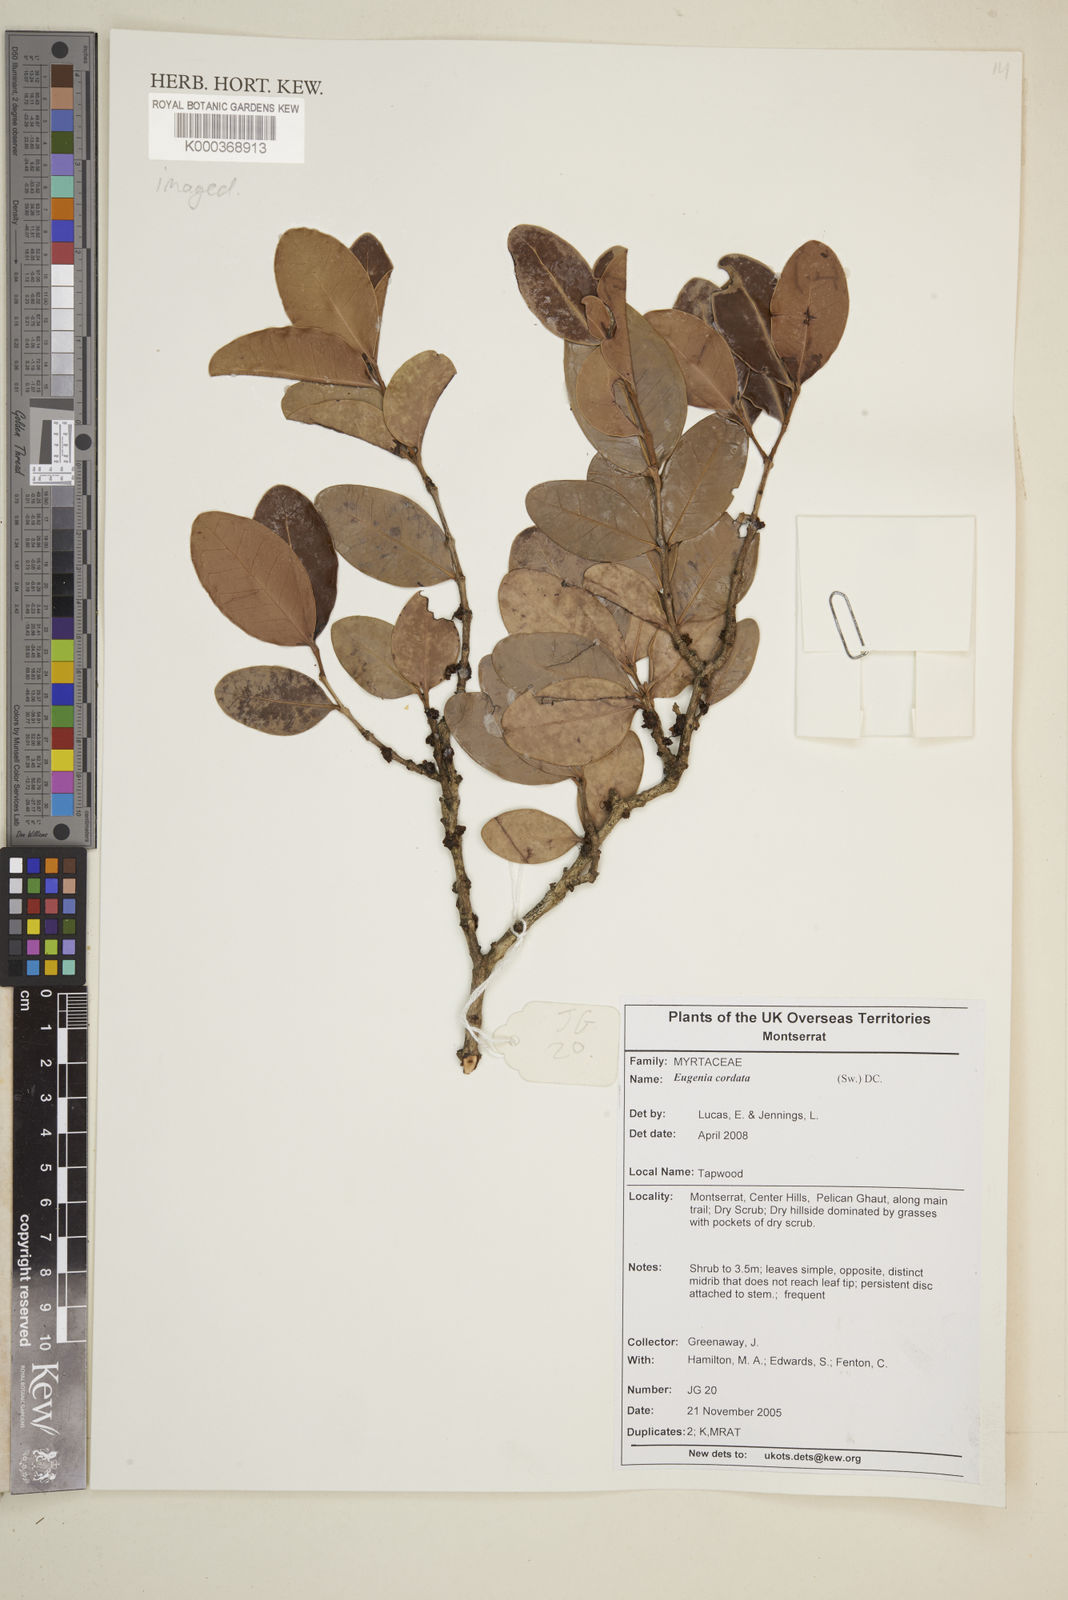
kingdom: Plantae
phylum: Tracheophyta
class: Magnoliopsida
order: Myrtales
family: Myrtaceae
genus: Eugenia
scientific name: Eugenia cordata
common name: Lathberry
